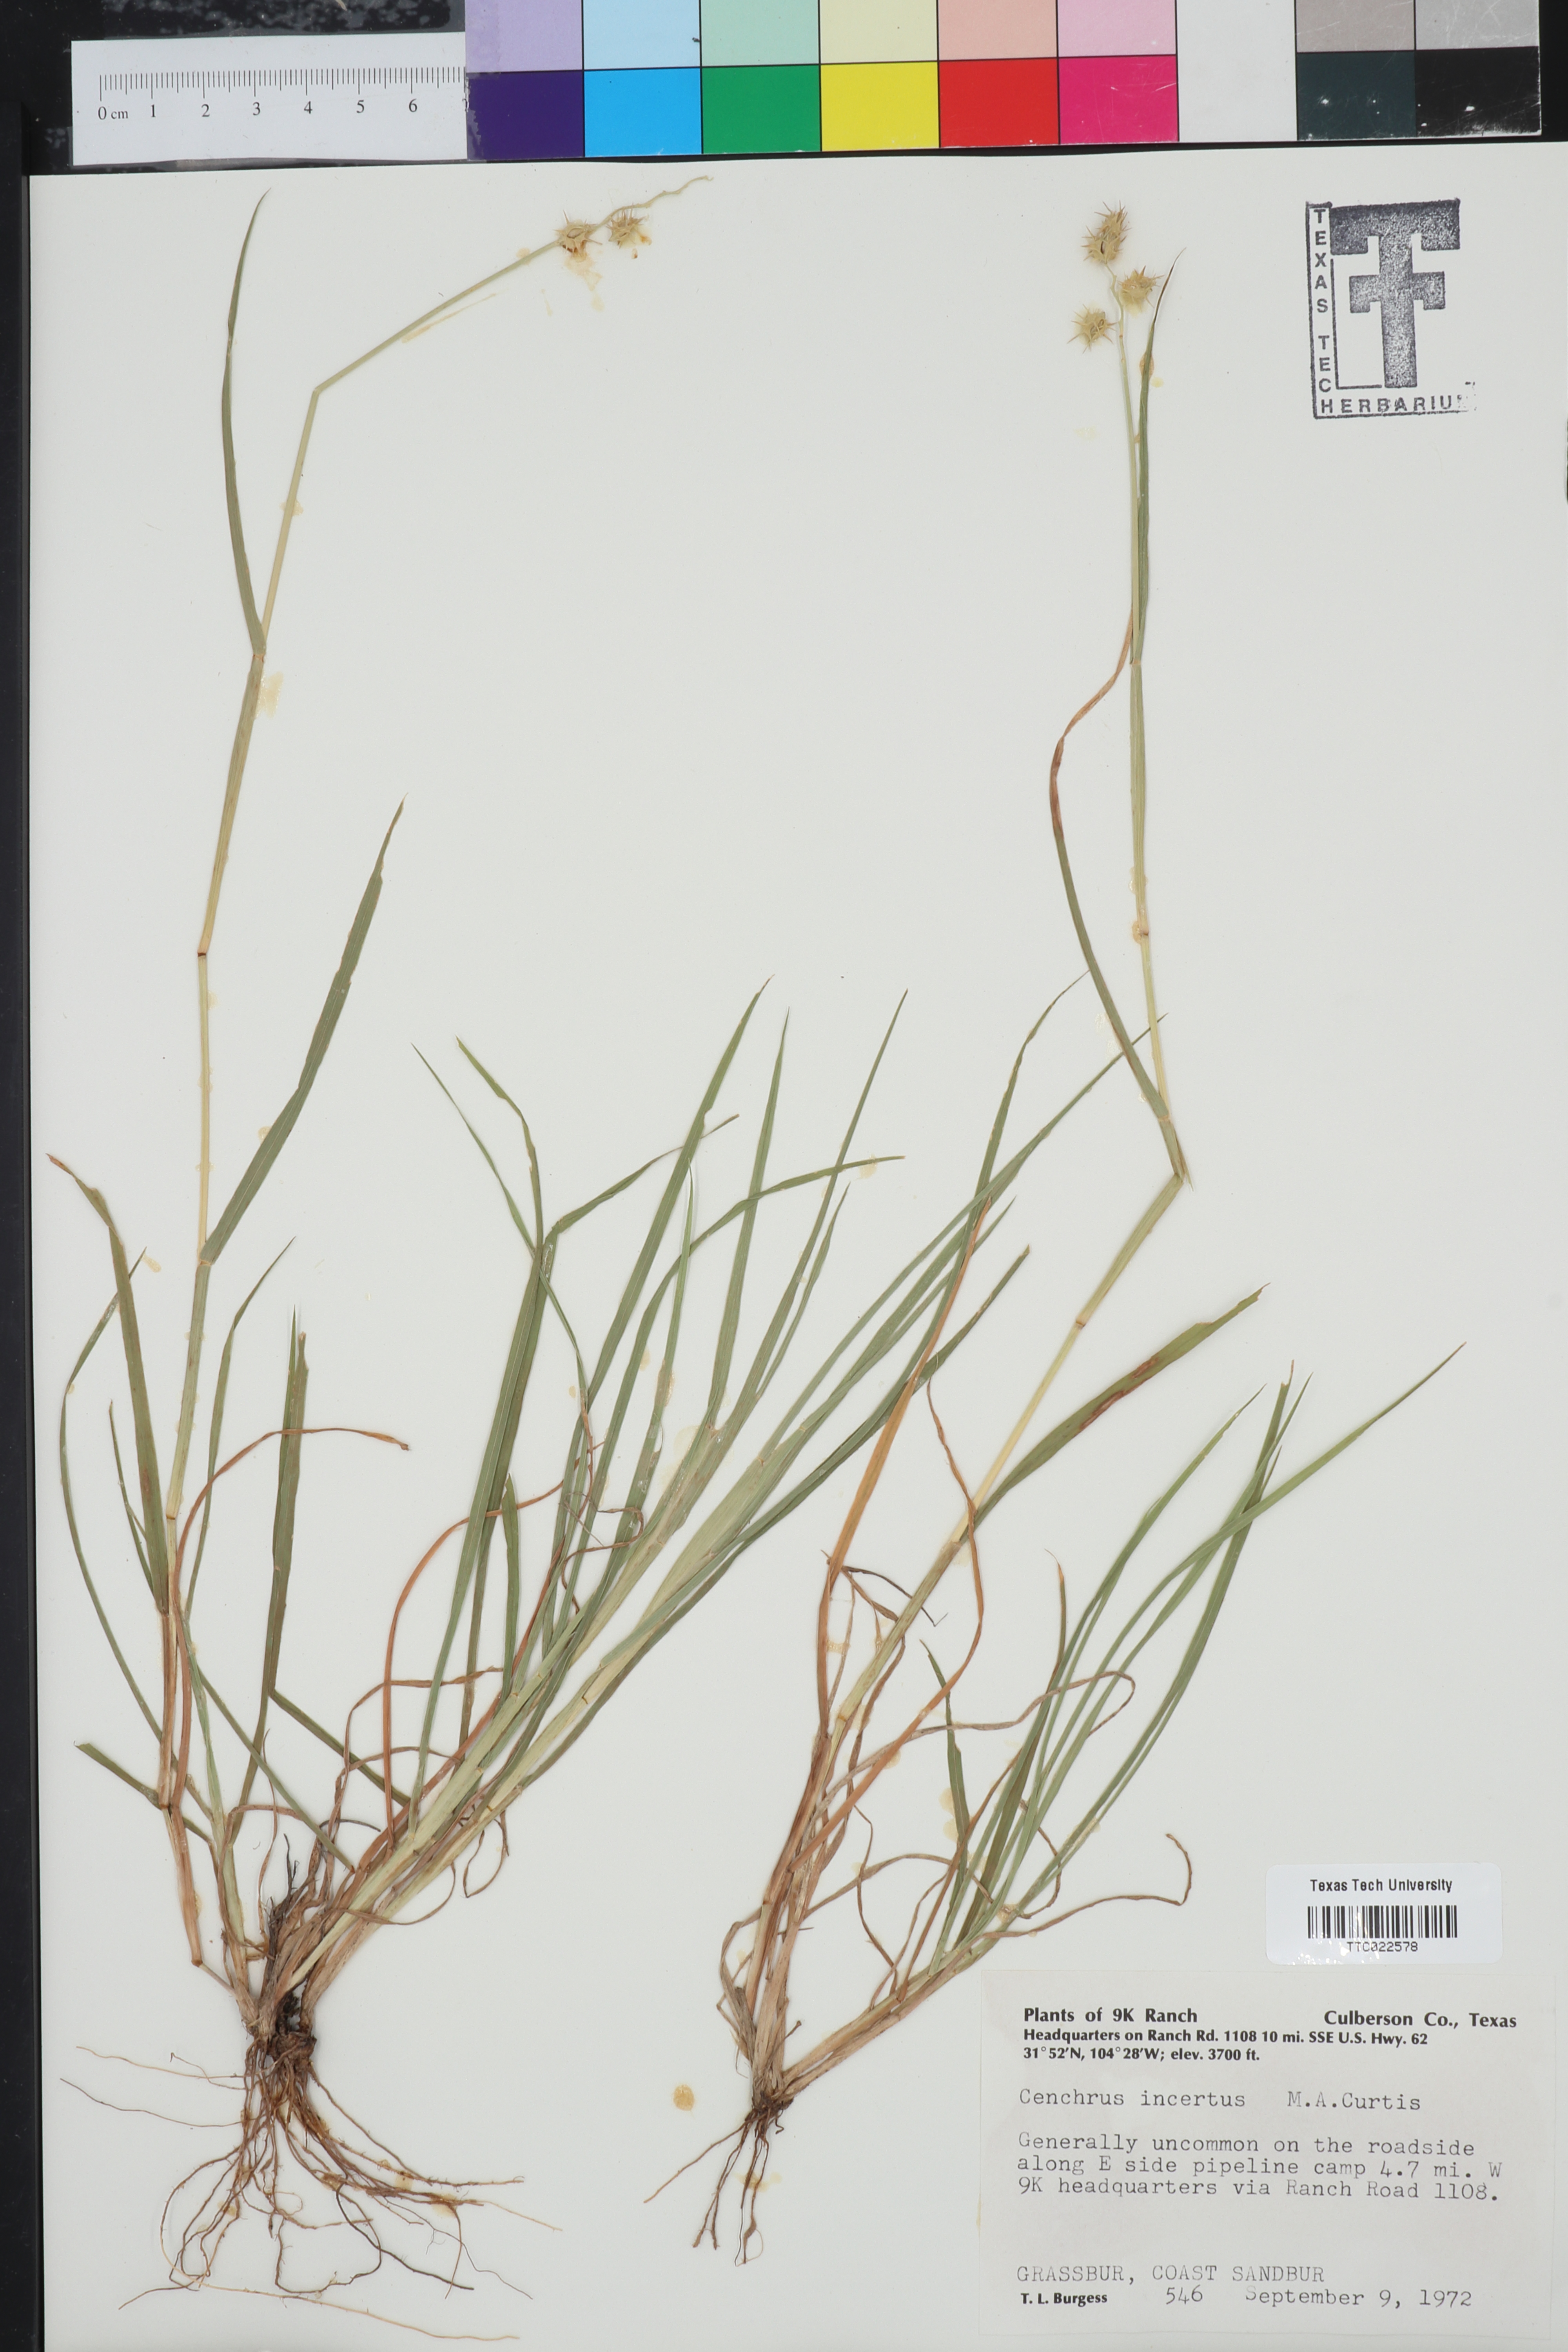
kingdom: Plantae
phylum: Tracheophyta
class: Liliopsida
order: Poales
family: Poaceae
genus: Cenchrus
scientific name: Cenchrus spinifex
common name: Coast sandbur
